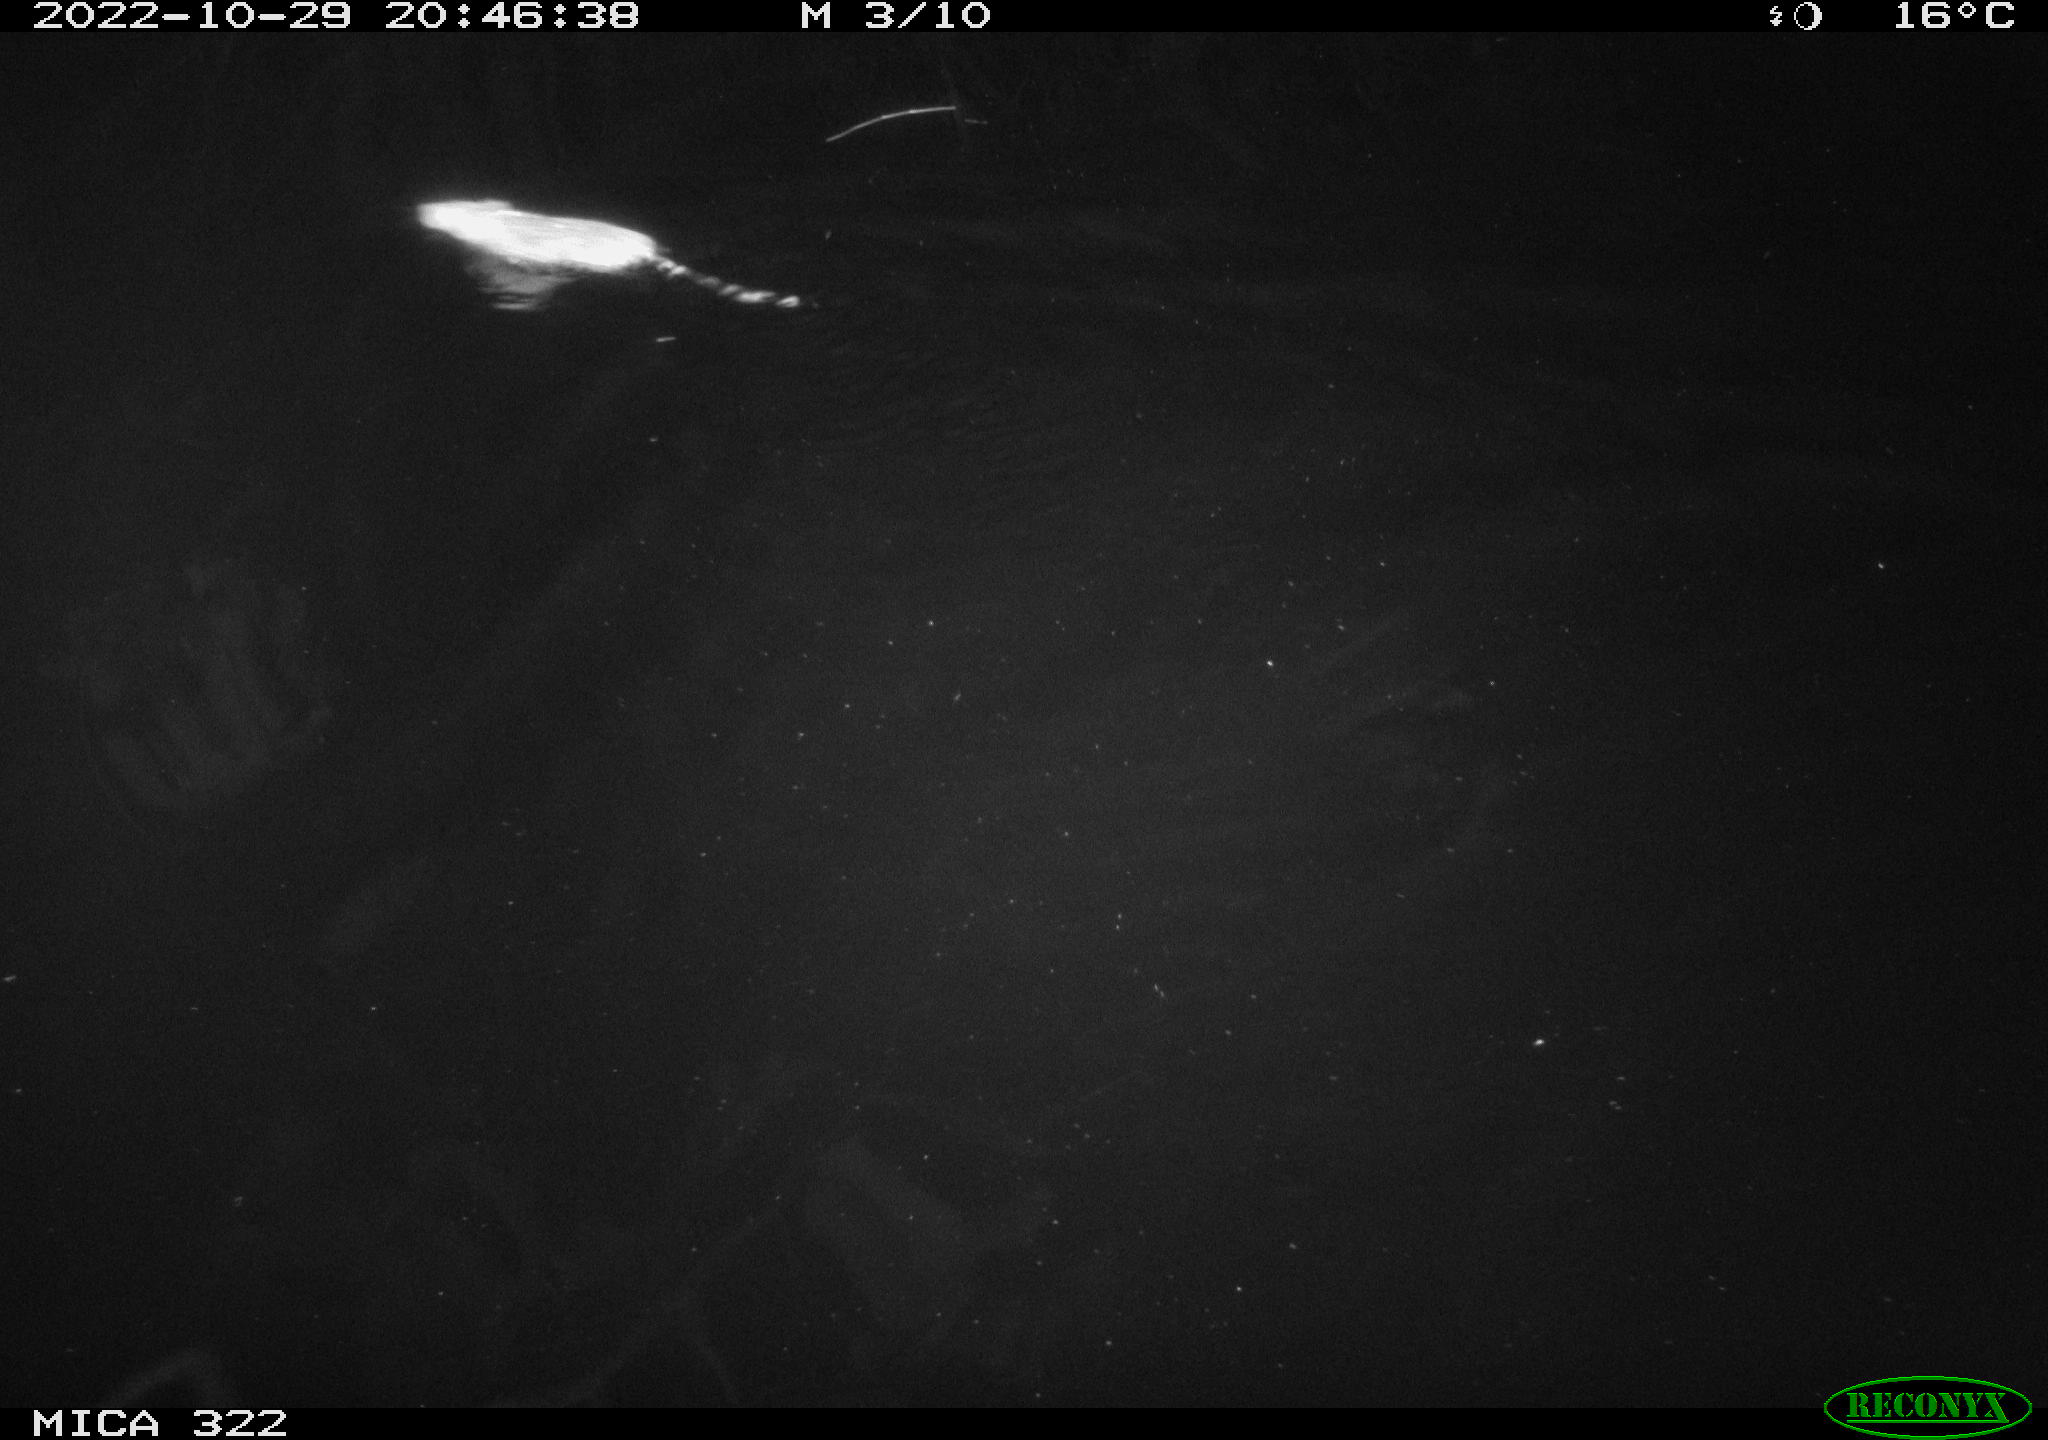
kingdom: Animalia
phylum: Chordata
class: Mammalia
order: Rodentia
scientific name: Rodentia
